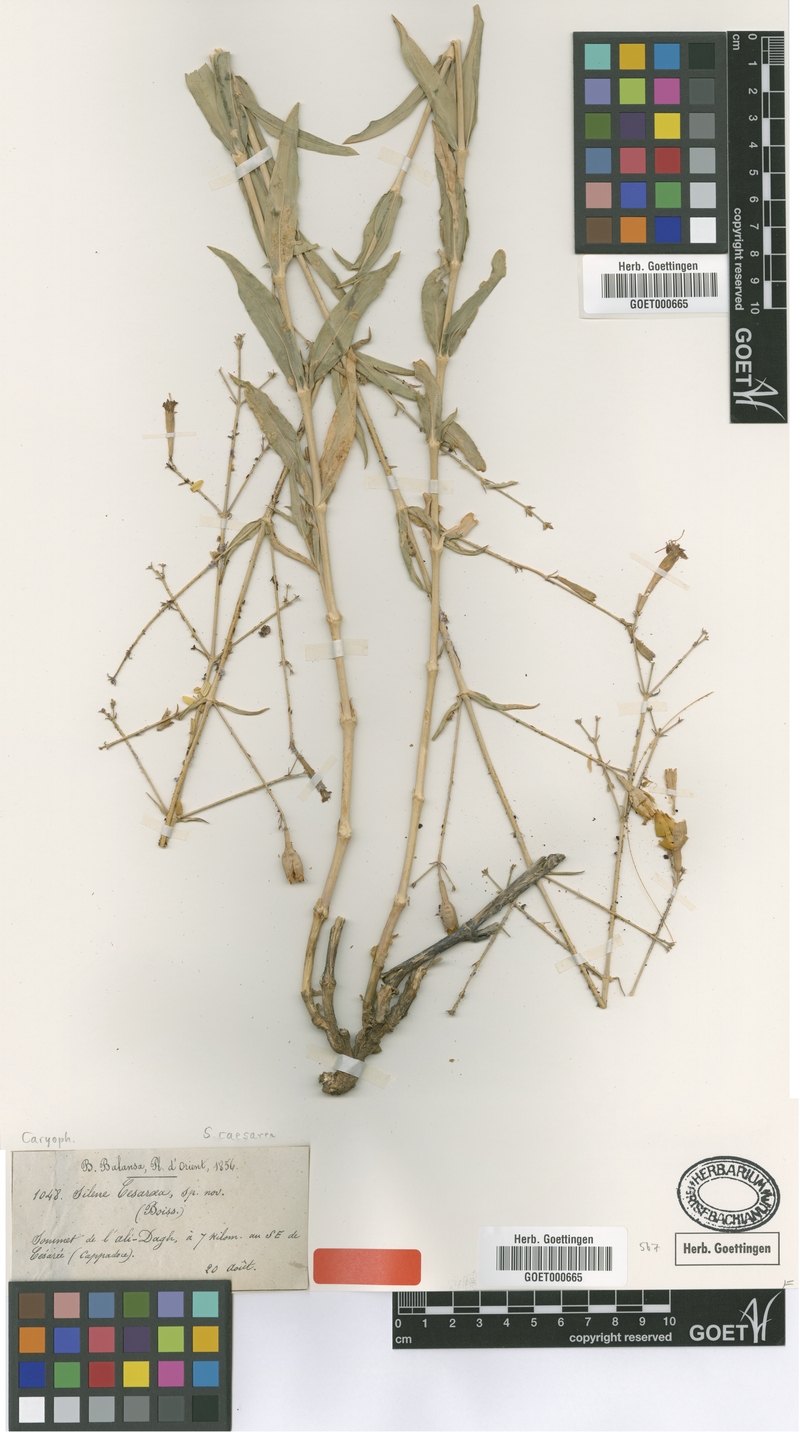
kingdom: Plantae
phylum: Tracheophyta
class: Magnoliopsida
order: Caryophyllales
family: Caryophyllaceae
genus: Silene
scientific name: Silene caesarea
